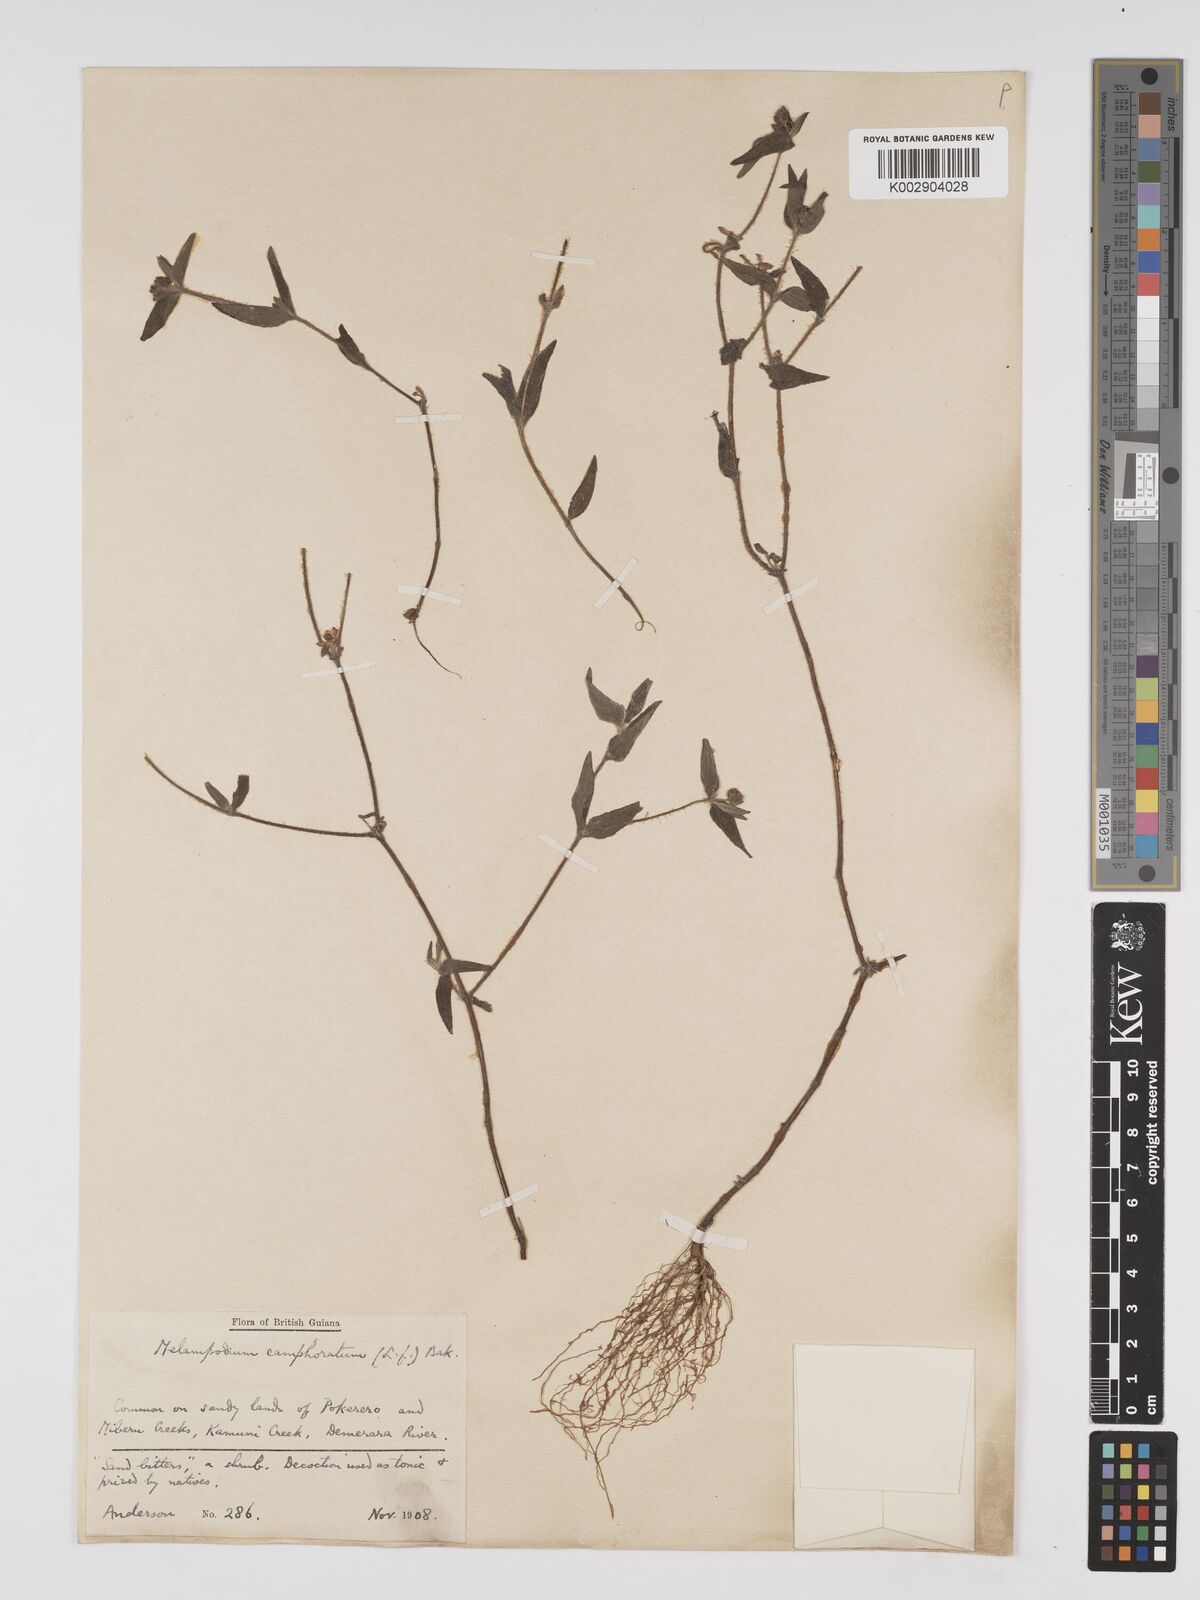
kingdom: Plantae
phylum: Tracheophyta
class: Magnoliopsida
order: Asterales
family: Asteraceae
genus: Unxia
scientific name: Unxia camphorata
